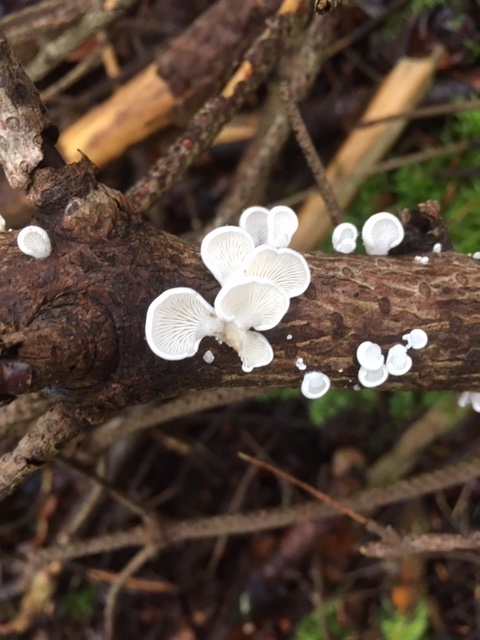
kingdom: Fungi
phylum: Basidiomycota
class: Agaricomycetes
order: Agaricales
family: Mycenaceae
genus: Panellus
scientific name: Panellus mitis
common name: mild epaulethat
